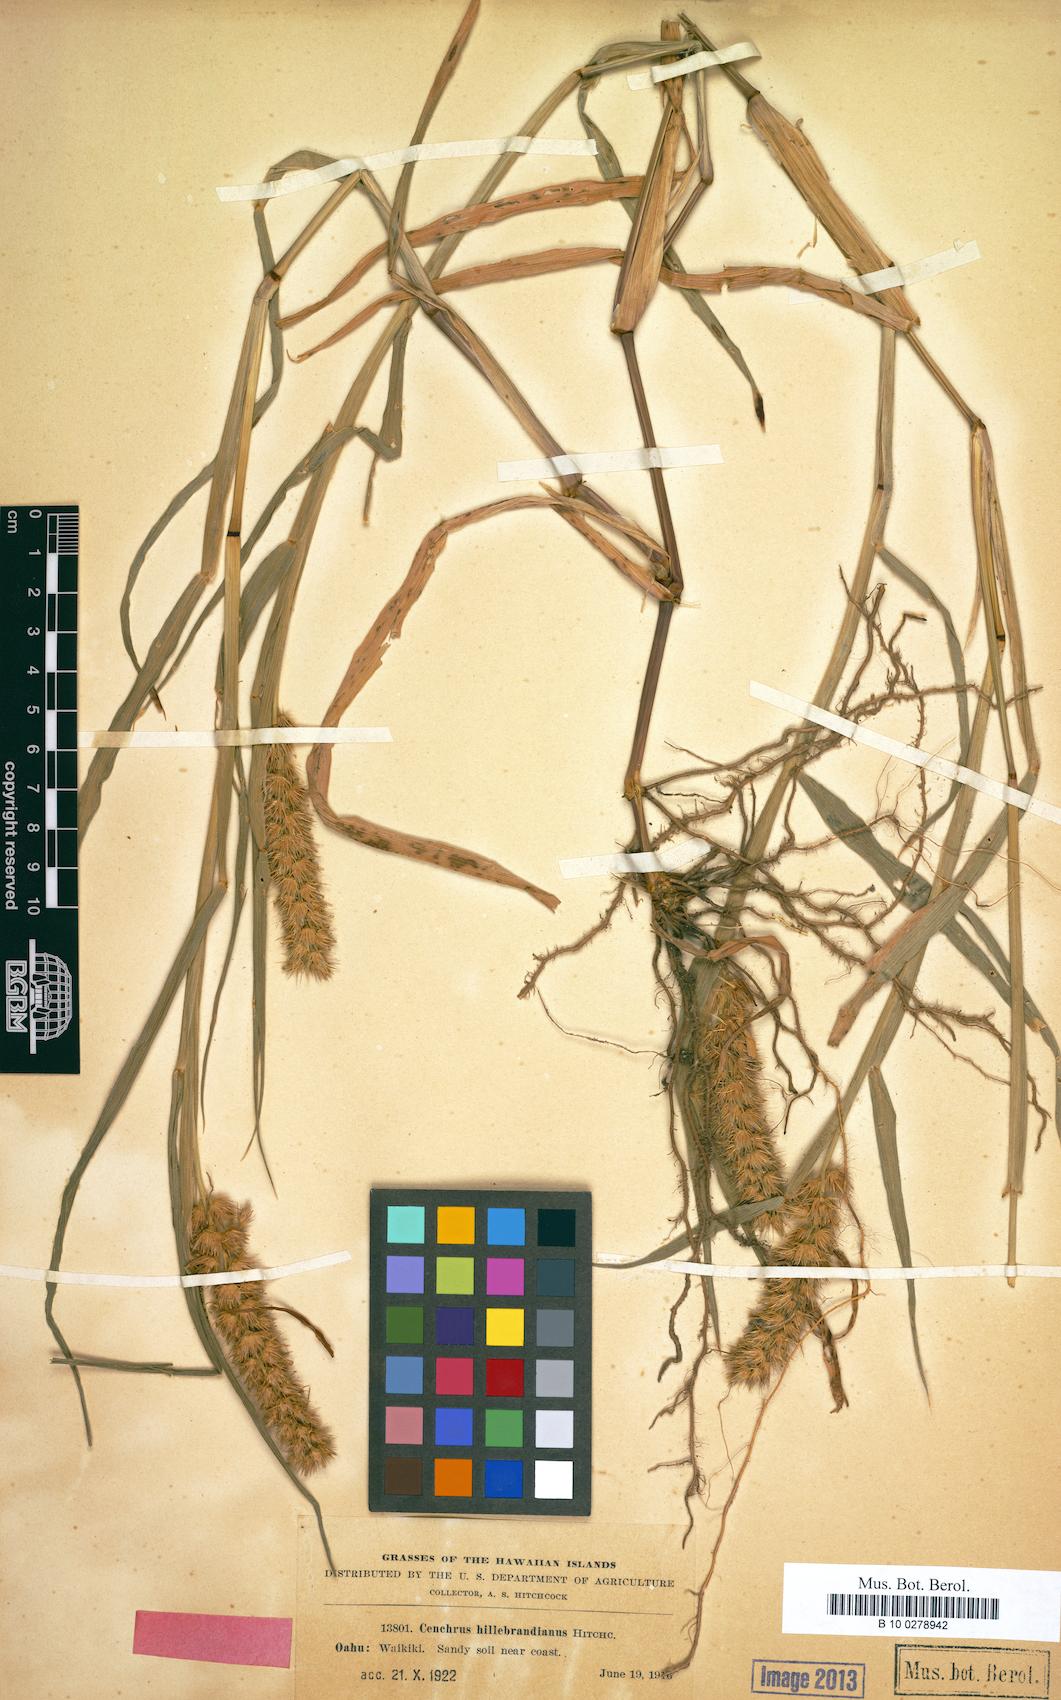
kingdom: Plantae
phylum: Tracheophyta
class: Liliopsida
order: Poales
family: Poaceae
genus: Cenchrus
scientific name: Cenchrus echinatus
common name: Southern sandbur
